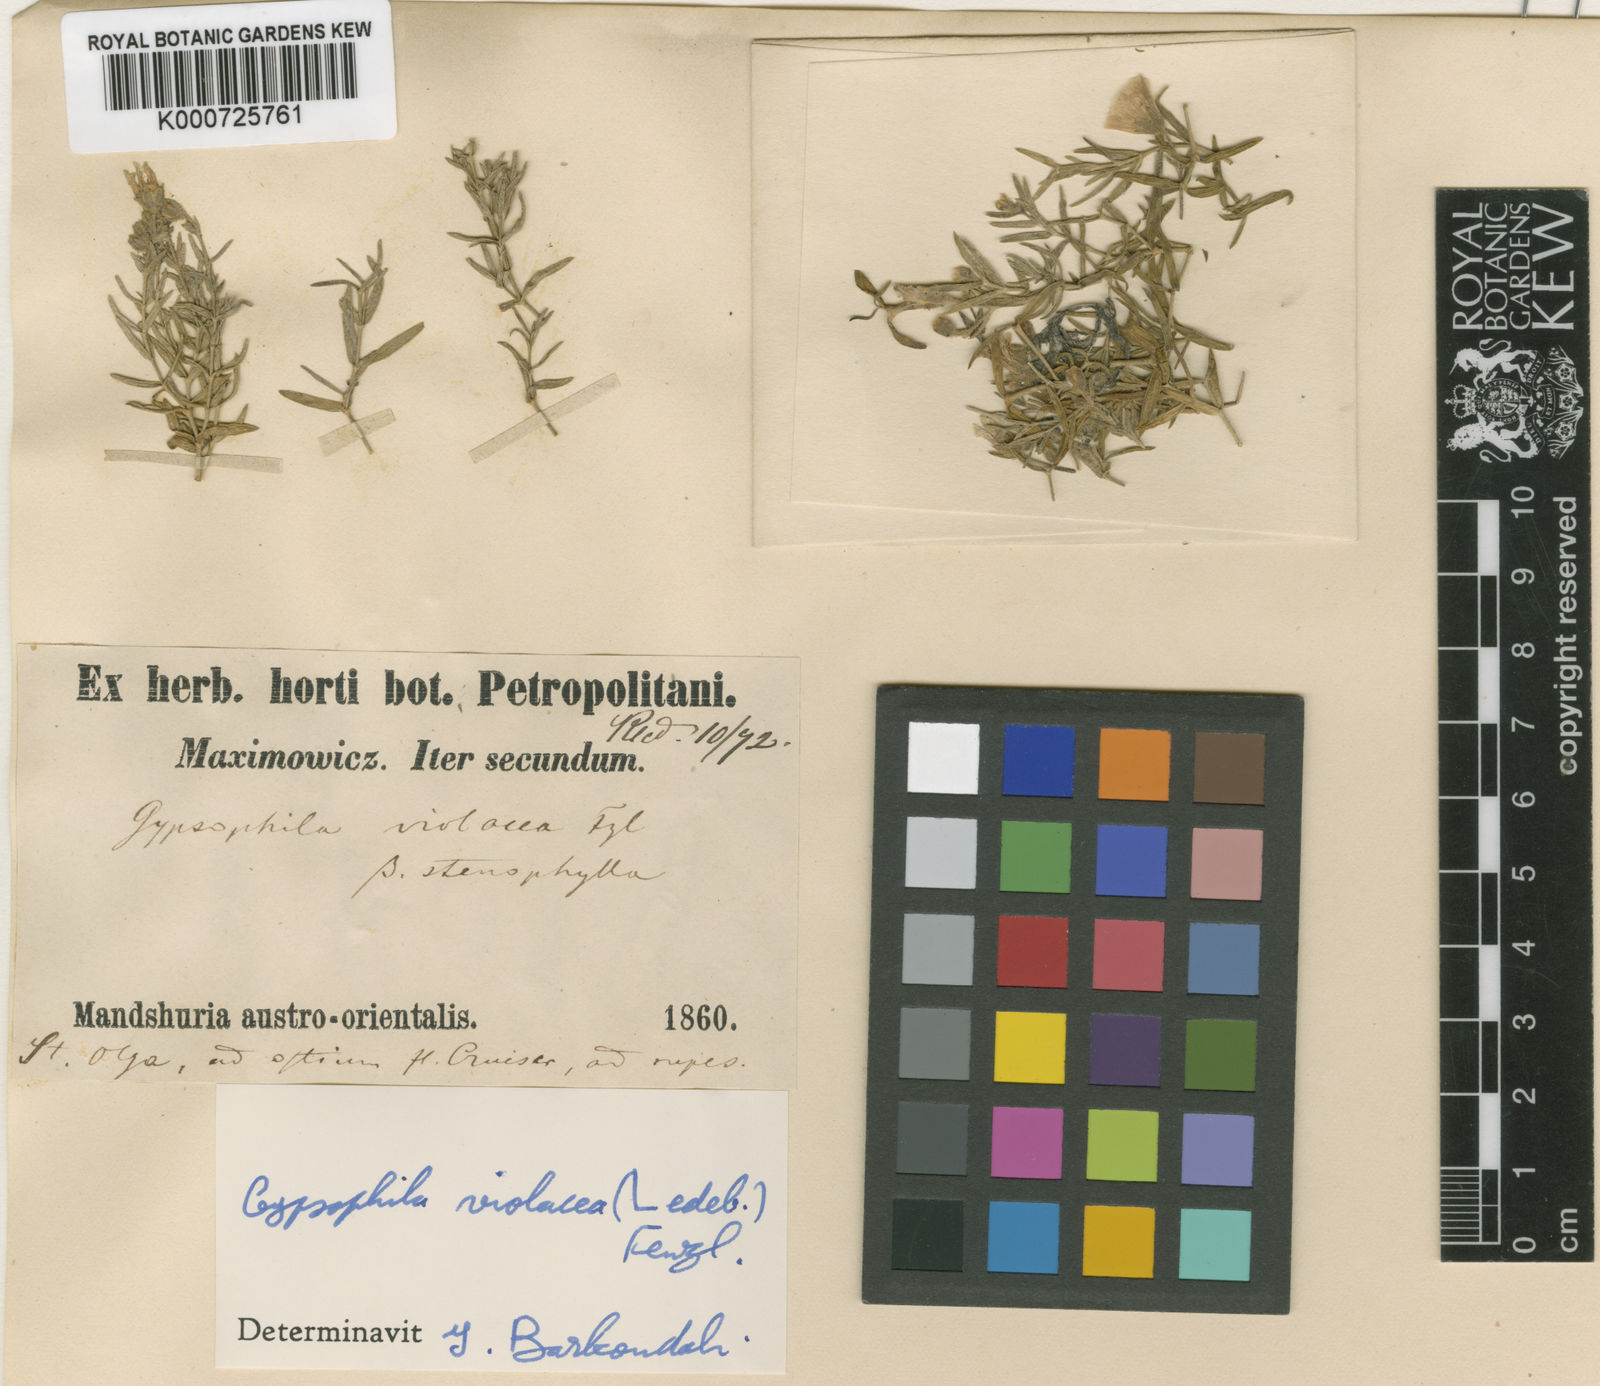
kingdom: Plantae
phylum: Tracheophyta
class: Magnoliopsida
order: Caryophyllales
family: Caryophyllaceae
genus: Heterochroa
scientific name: Heterochroa violacea
